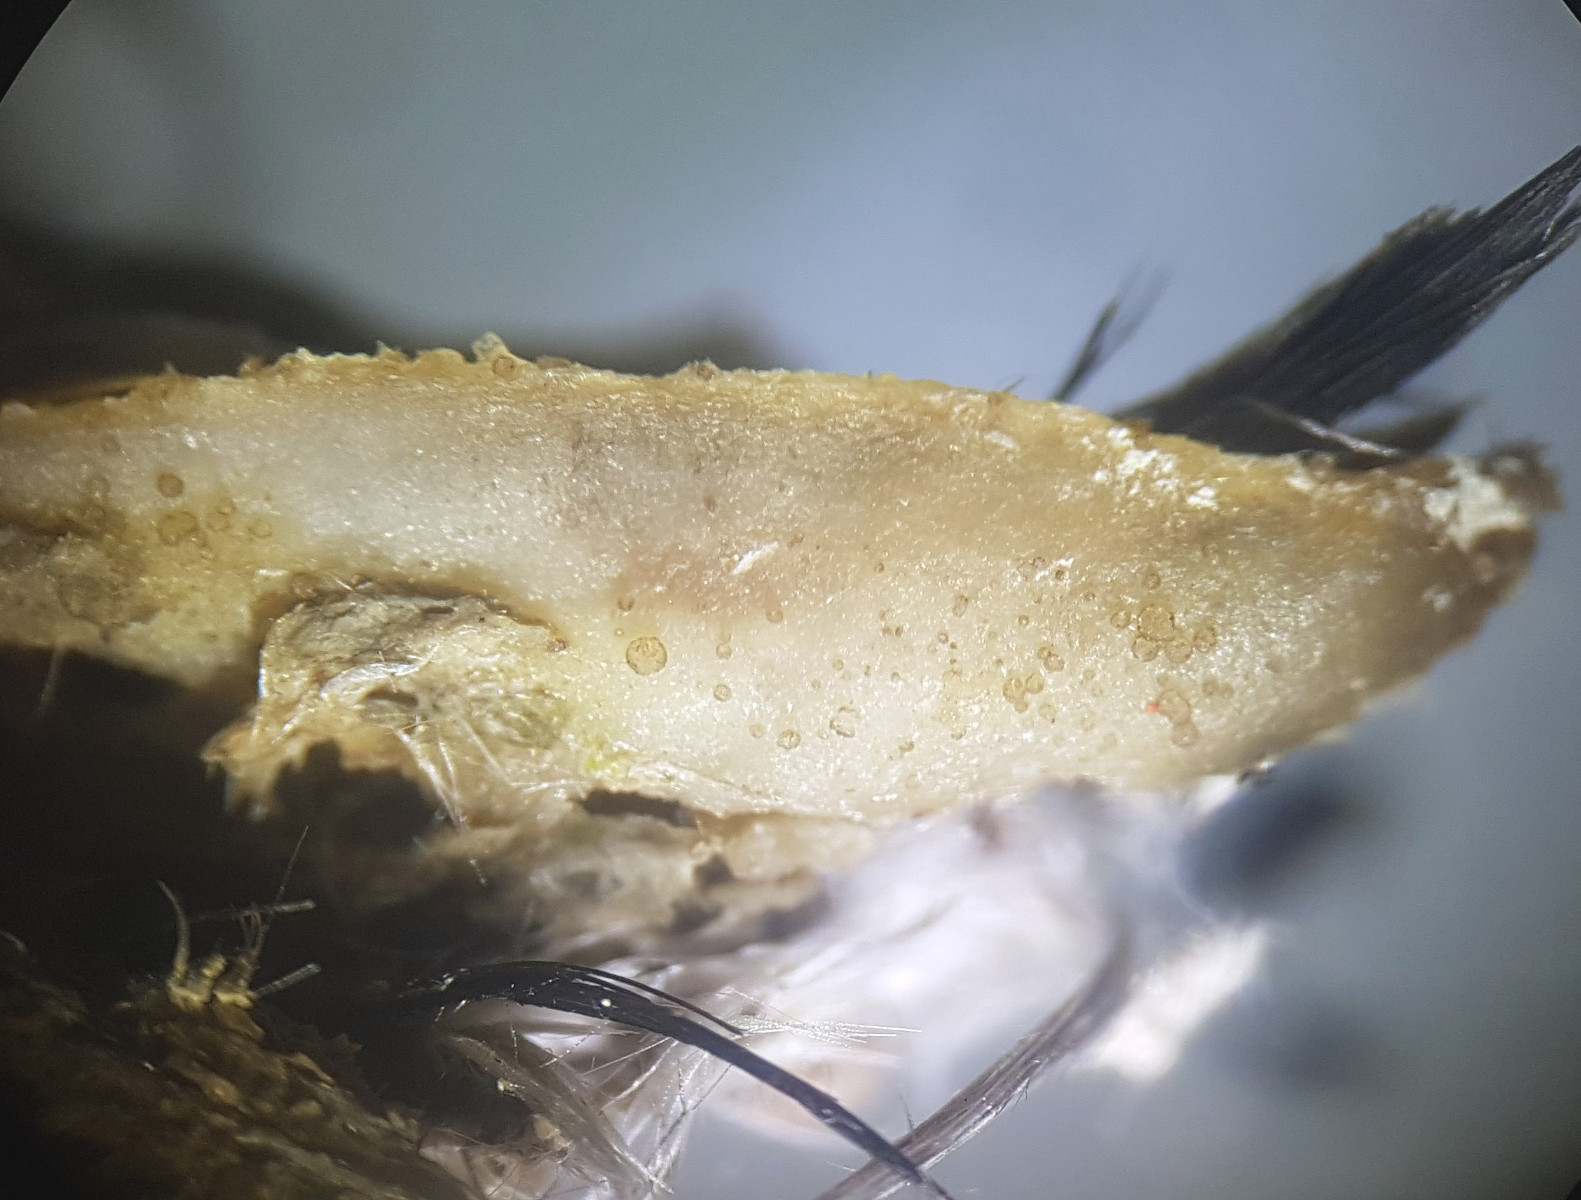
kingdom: Fungi
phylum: Ascomycota
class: Leotiomycetes
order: Thelebolales
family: Thelebolaceae
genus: Thelebolus
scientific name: Thelebolus stercoreus
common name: mangesporet småbæger
